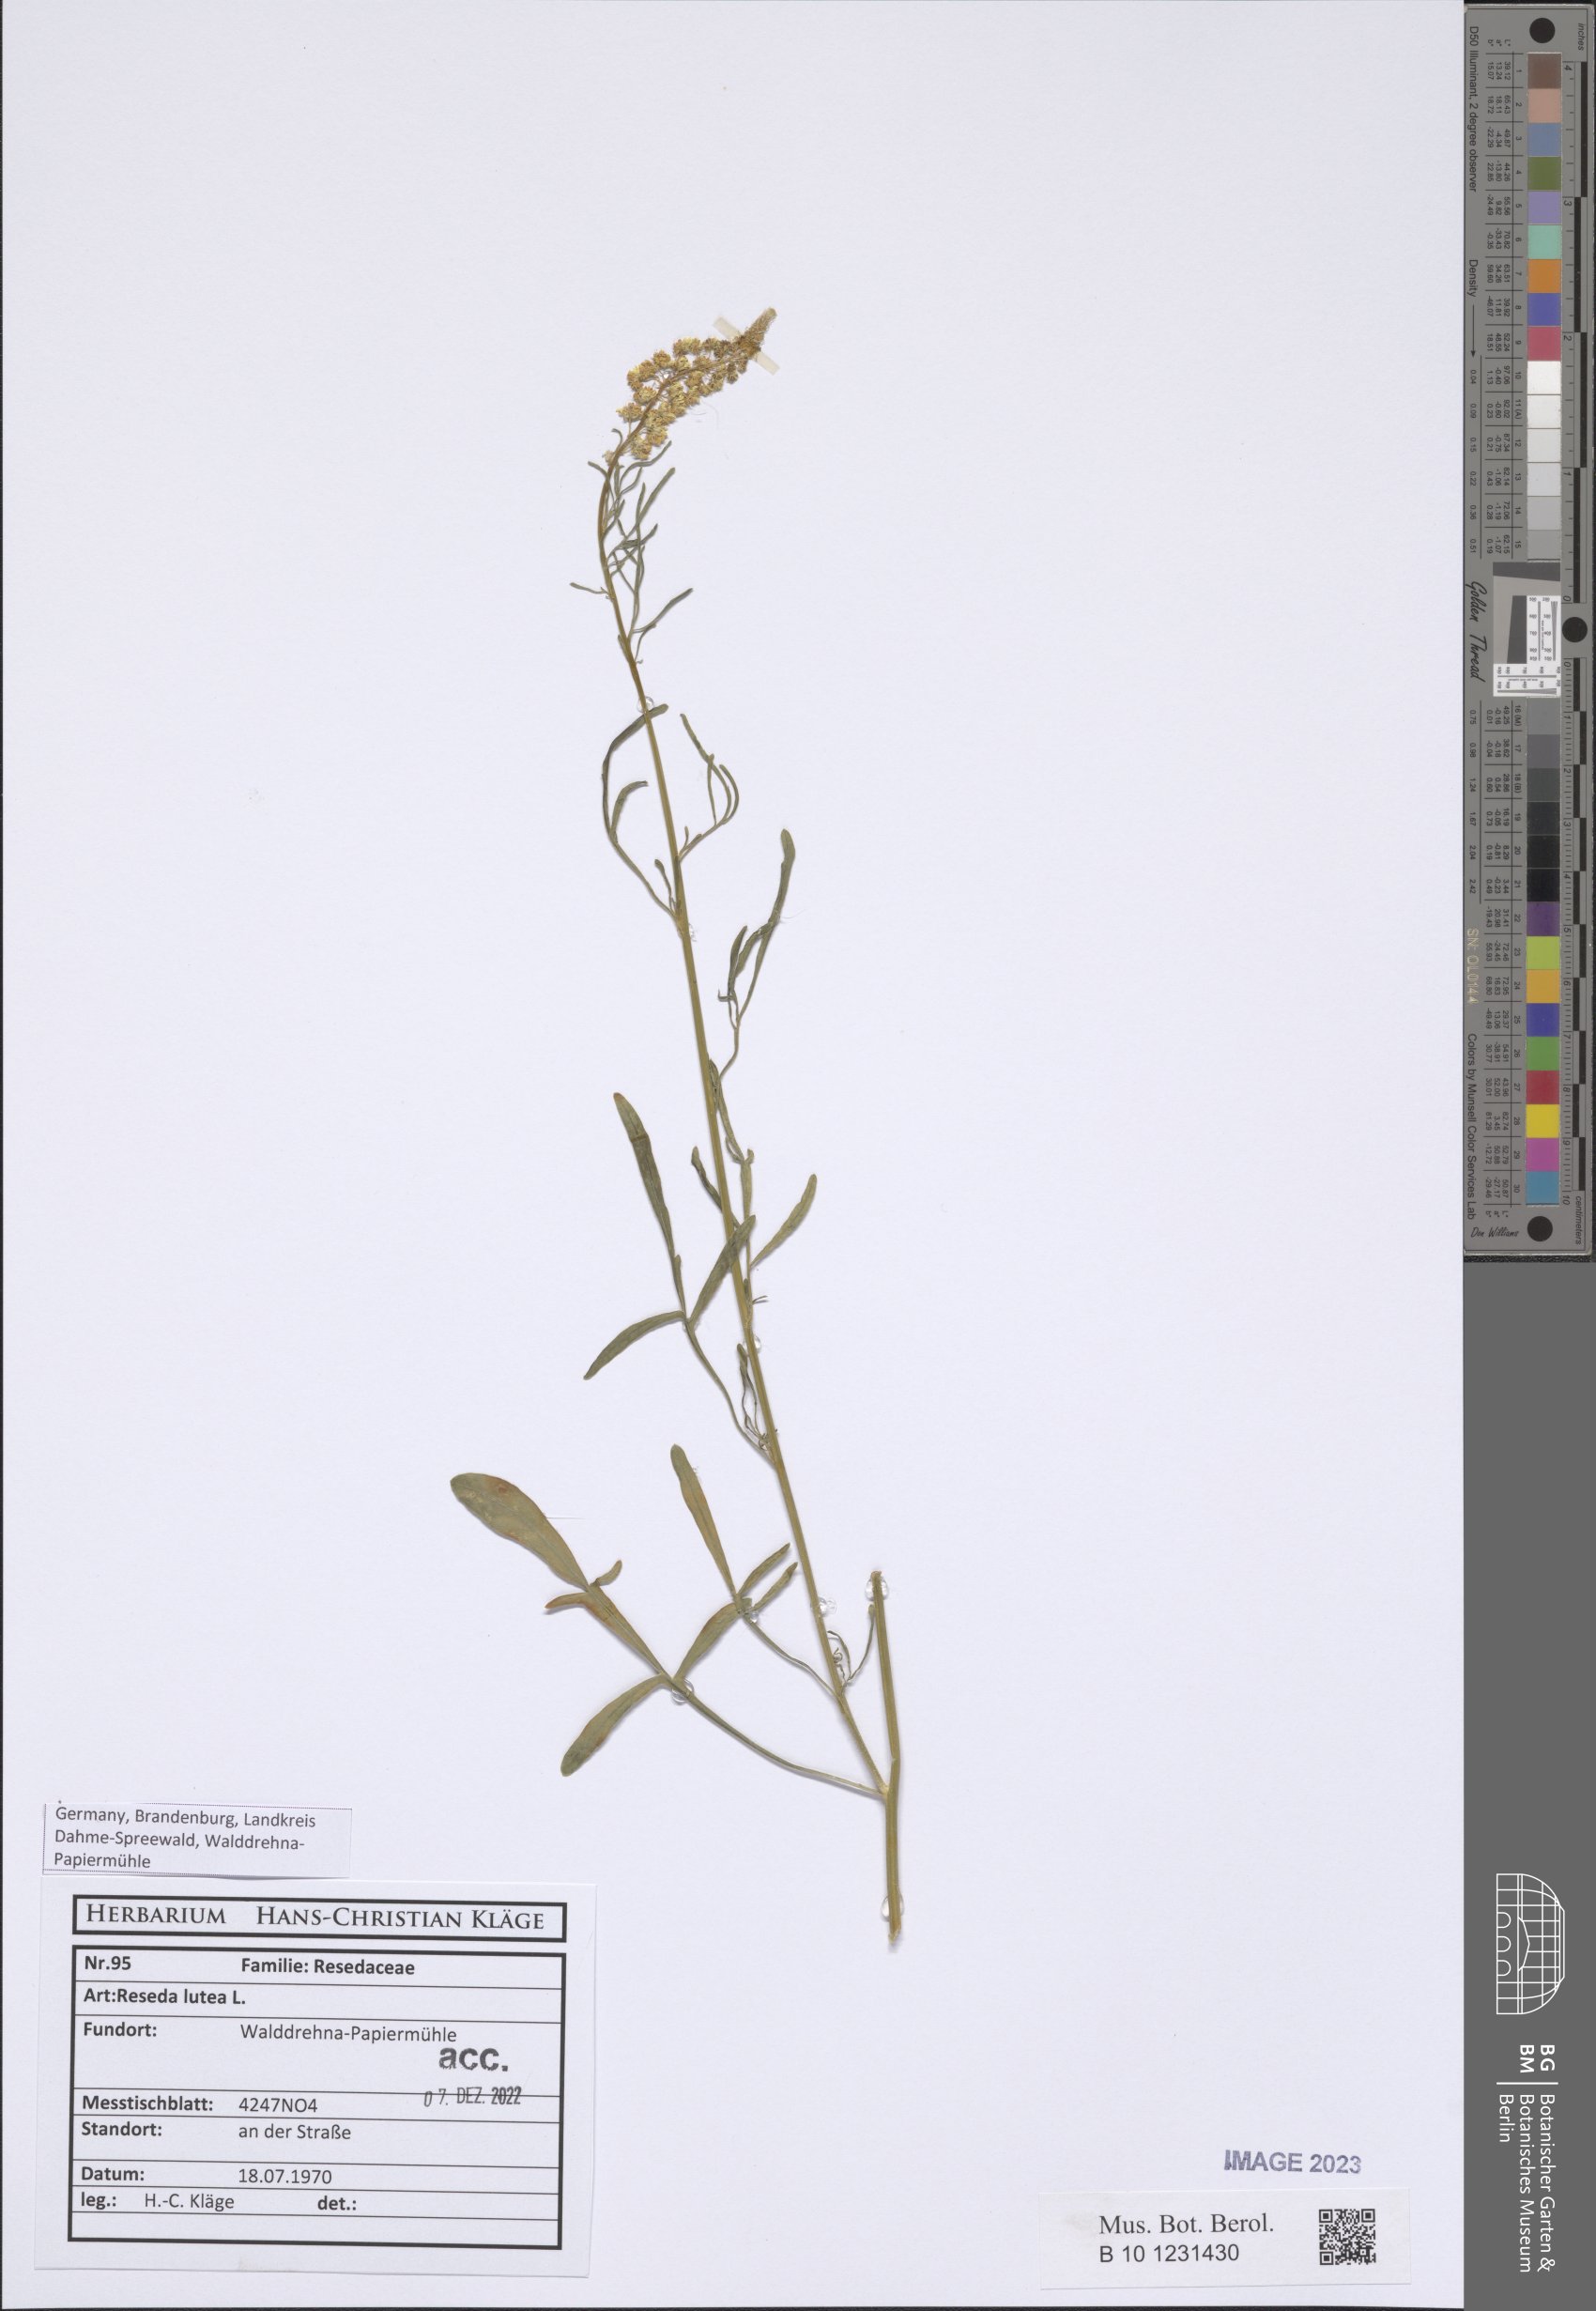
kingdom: Plantae
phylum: Tracheophyta
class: Magnoliopsida
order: Brassicales
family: Resedaceae
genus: Reseda
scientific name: Reseda lutea
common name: Wild mignonette
